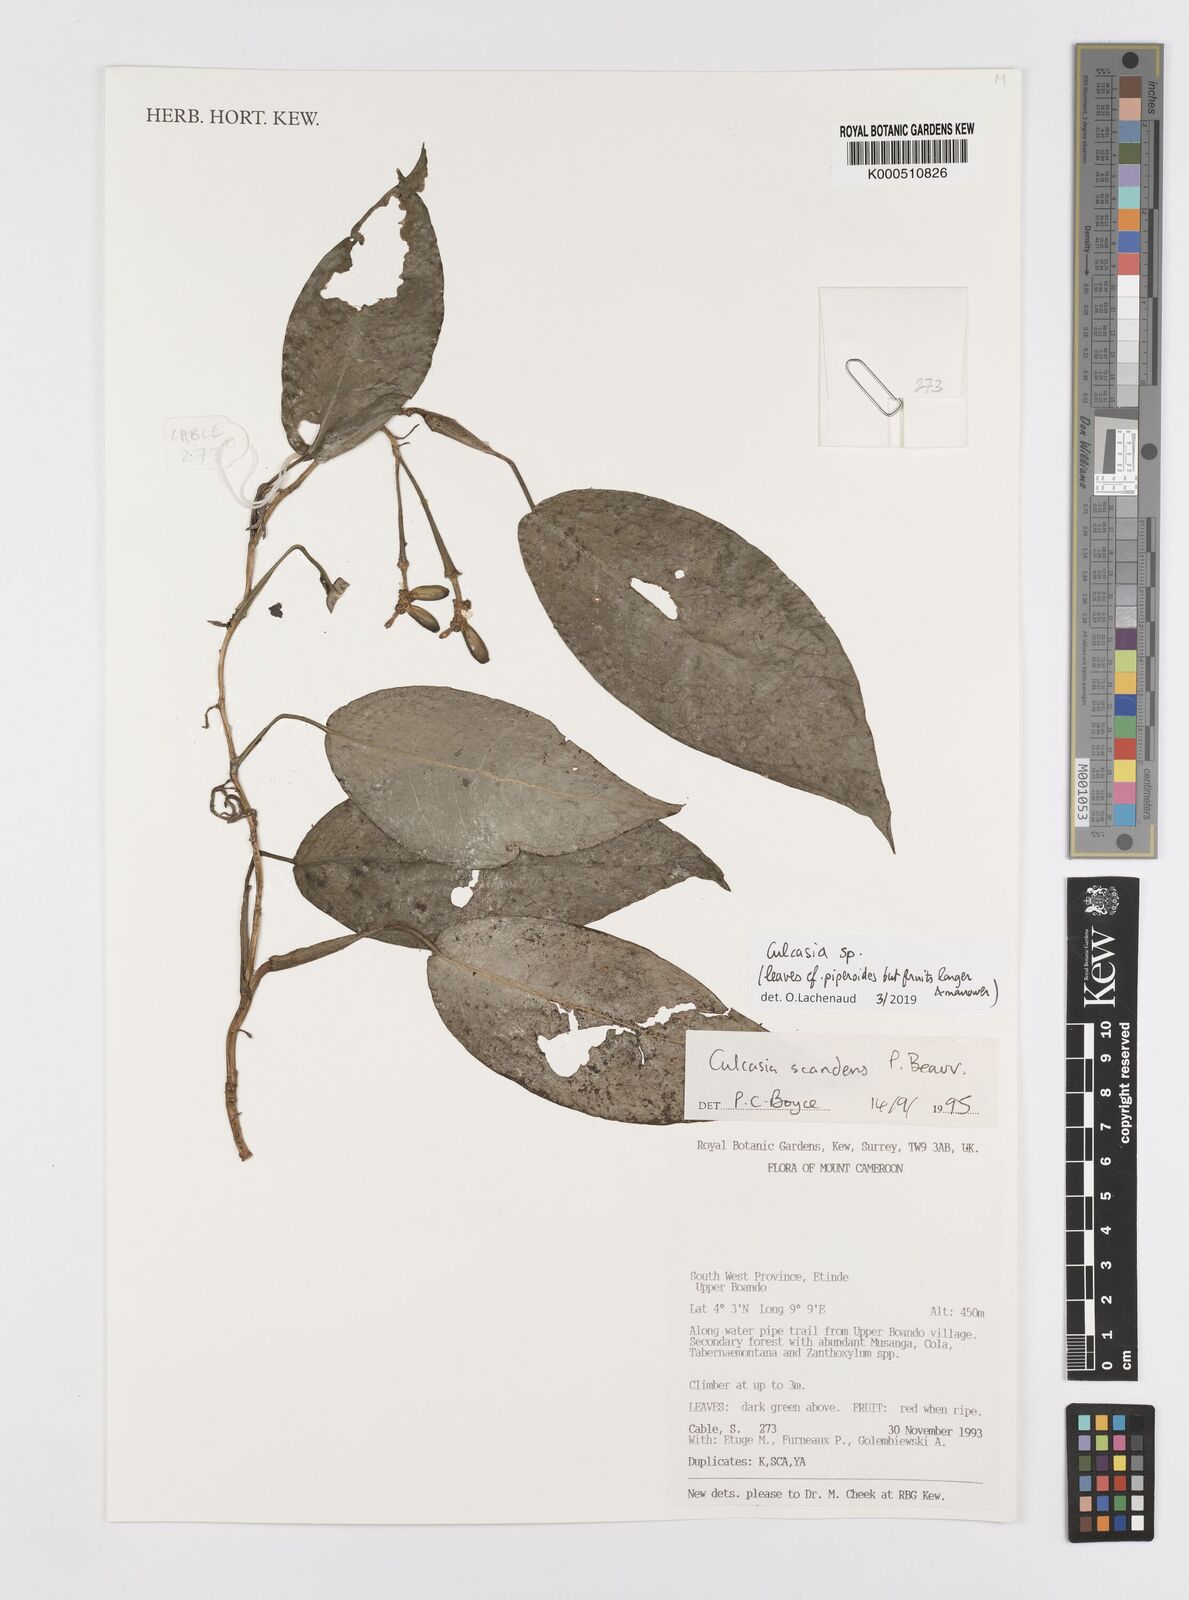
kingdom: Plantae
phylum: Tracheophyta
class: Liliopsida
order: Alismatales
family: Araceae
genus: Culcasia
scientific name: Culcasia parviflora
